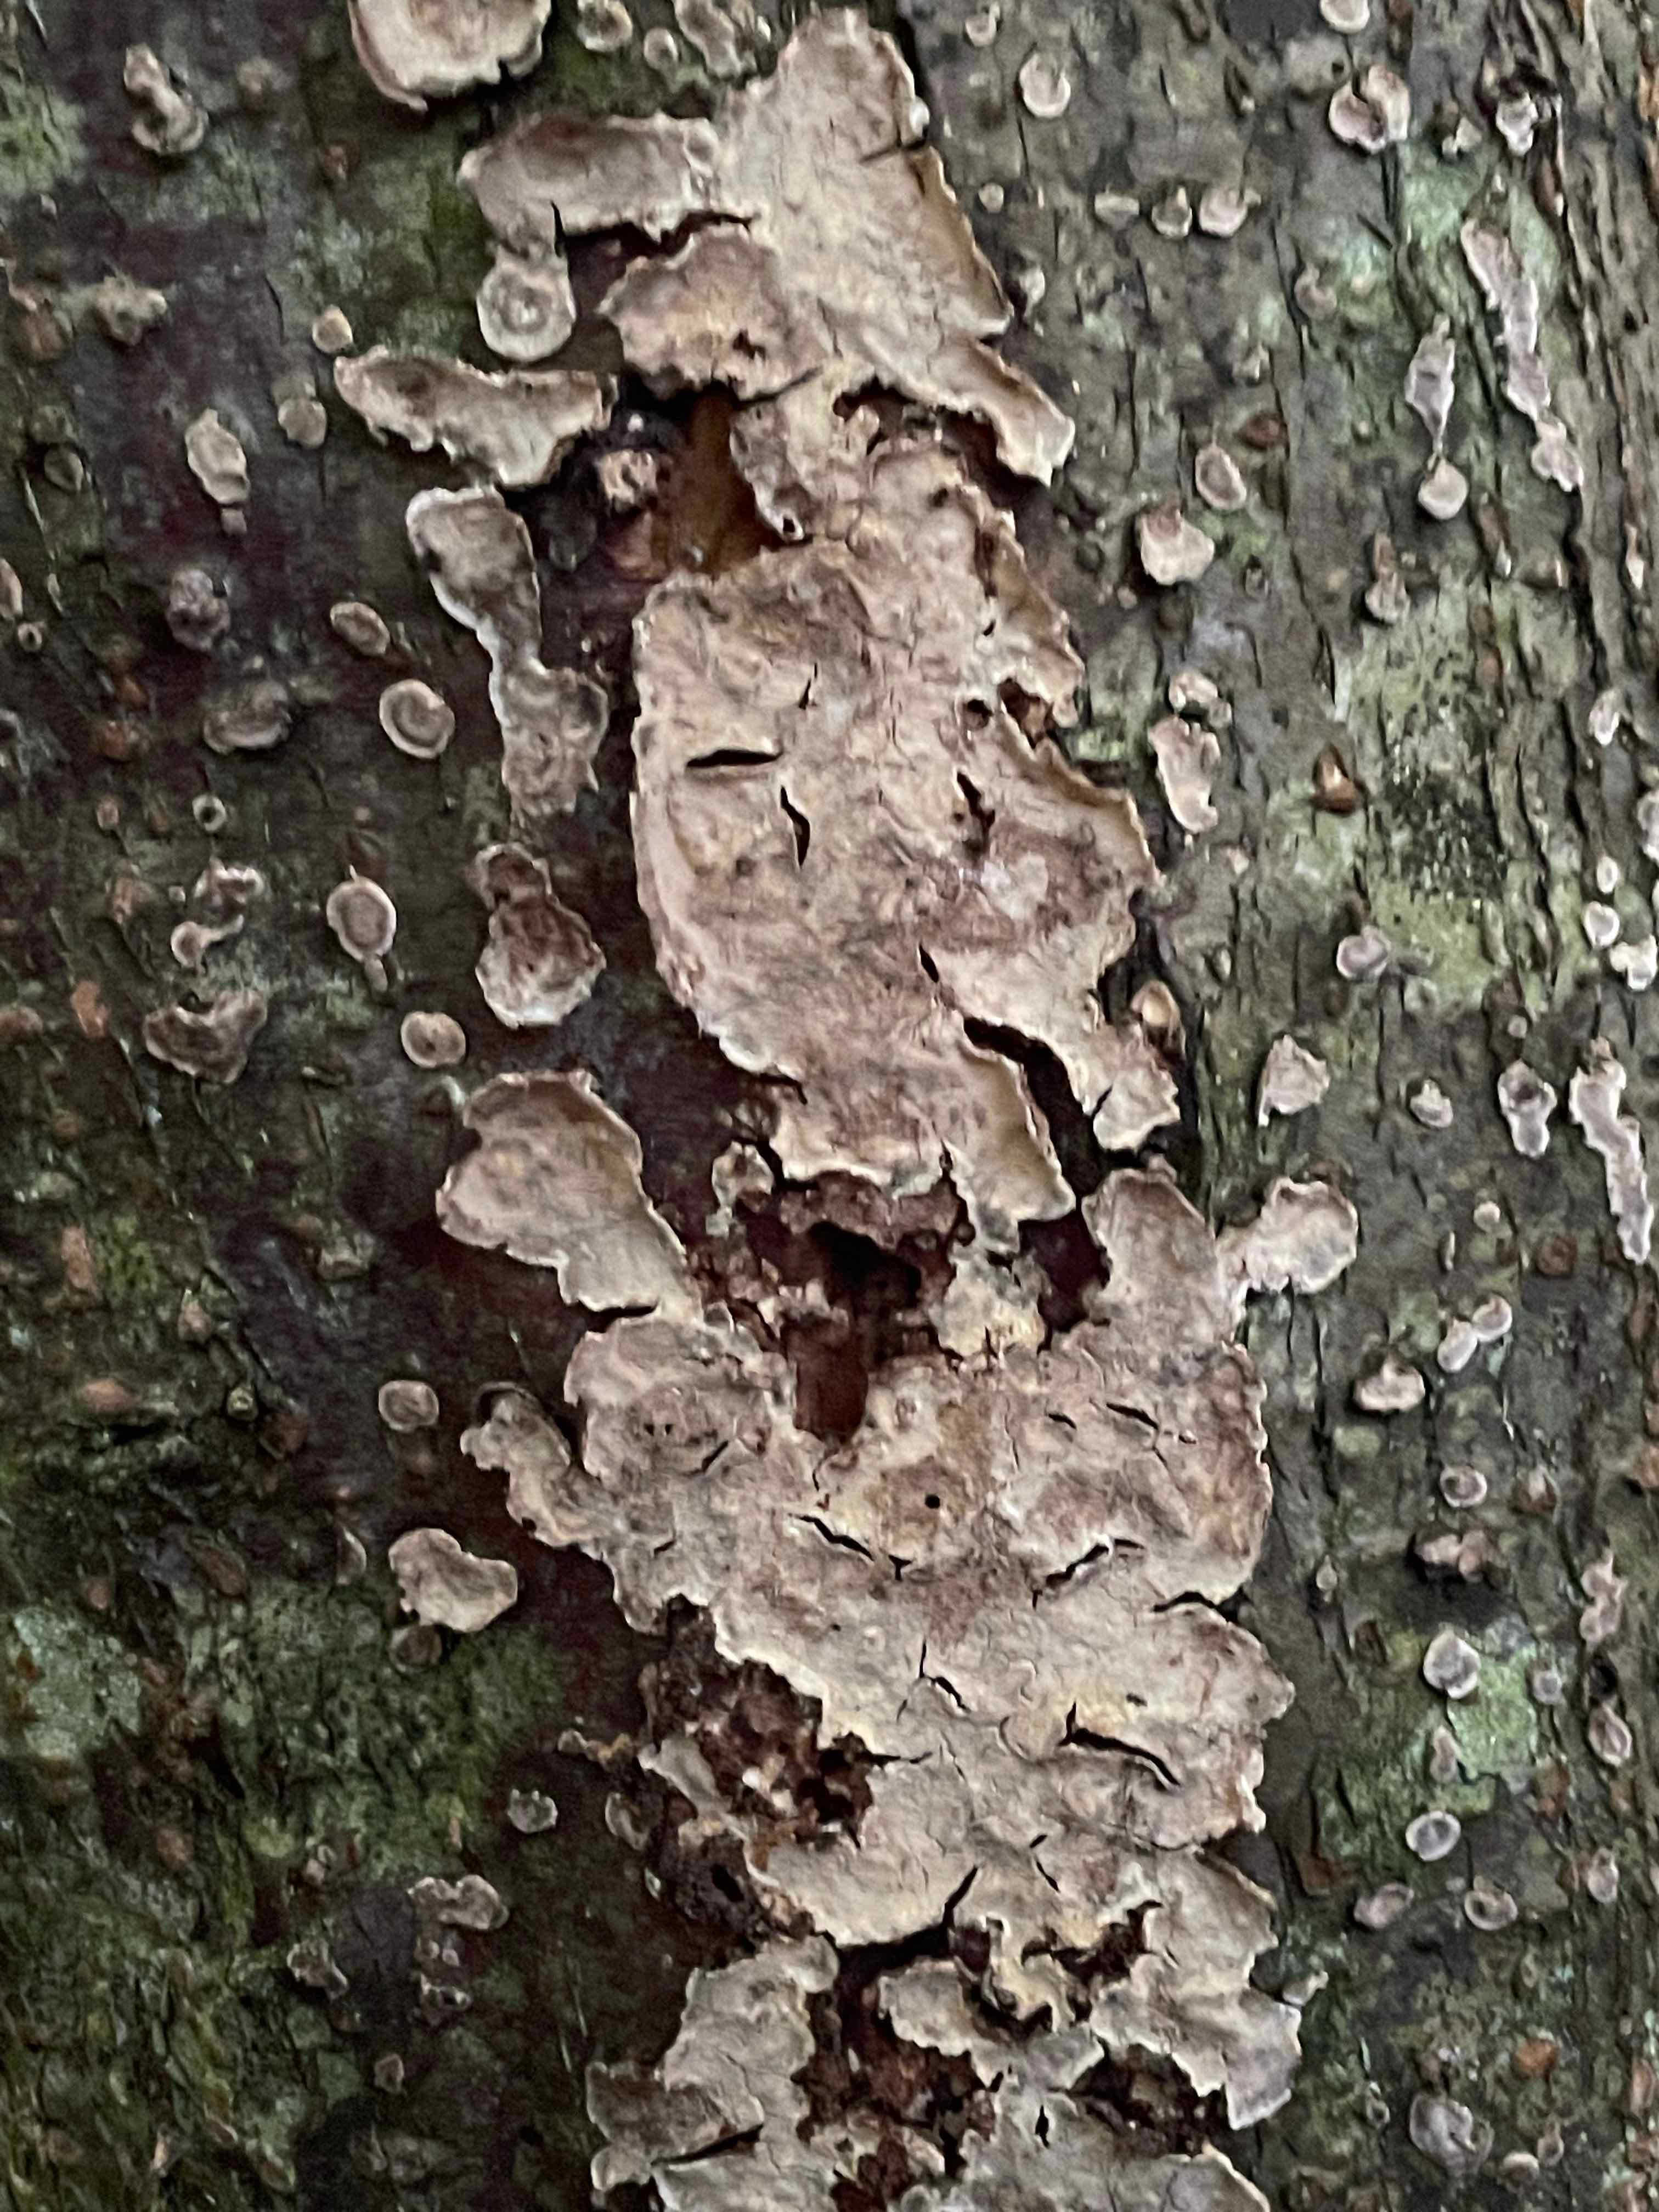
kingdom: Fungi
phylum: Basidiomycota
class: Agaricomycetes
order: Russulales
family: Stereaceae
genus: Stereum
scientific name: Stereum rugosum
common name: rynket lædersvamp
